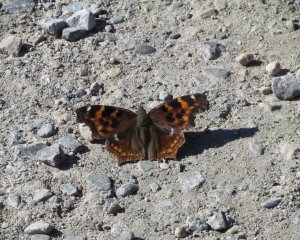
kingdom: Animalia
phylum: Arthropoda
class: Insecta
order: Lepidoptera
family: Nymphalidae
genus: Polygonia
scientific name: Polygonia vaualbum
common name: Compton Tortoiseshell
